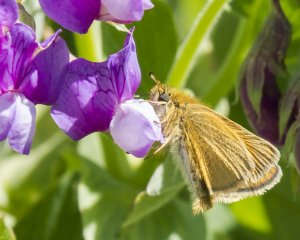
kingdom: Animalia
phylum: Arthropoda
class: Insecta
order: Lepidoptera
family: Hesperiidae
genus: Thymelicus
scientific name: Thymelicus lineola
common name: European Skipper
